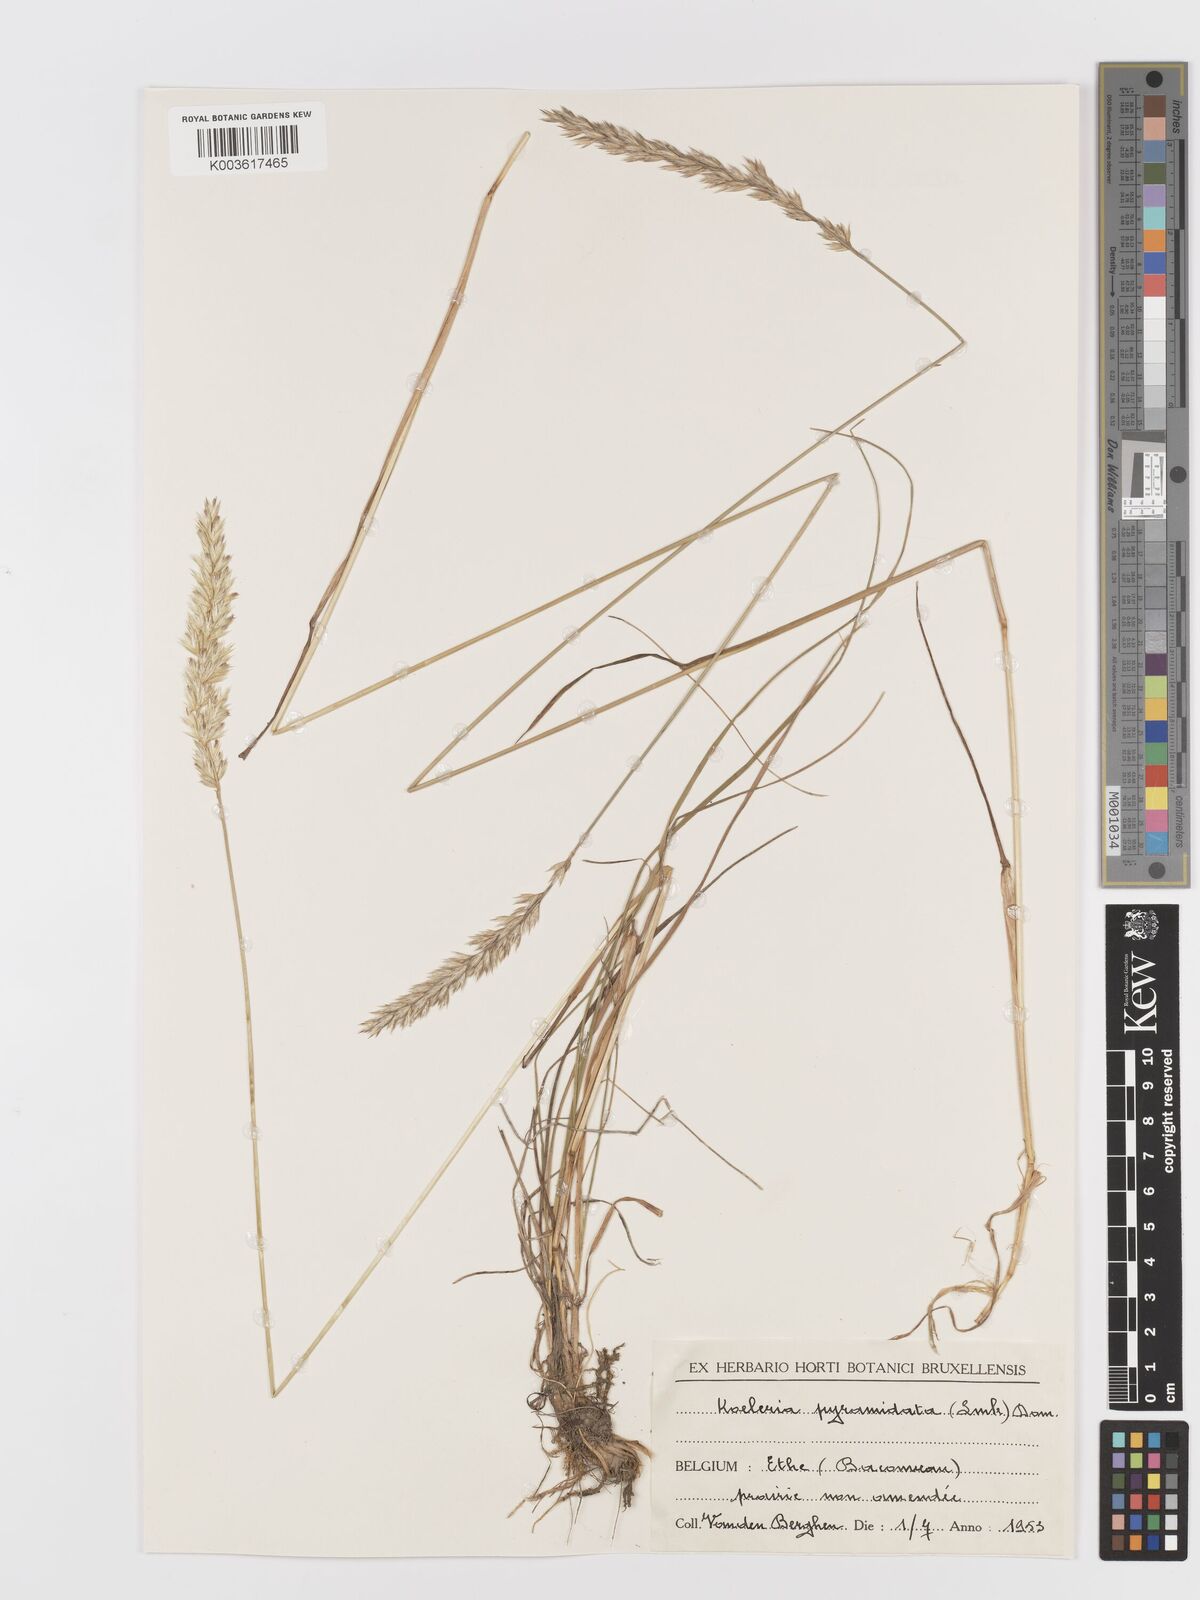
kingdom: Plantae
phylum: Tracheophyta
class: Liliopsida
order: Poales
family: Poaceae
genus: Koeleria
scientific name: Koeleria pyramidata
